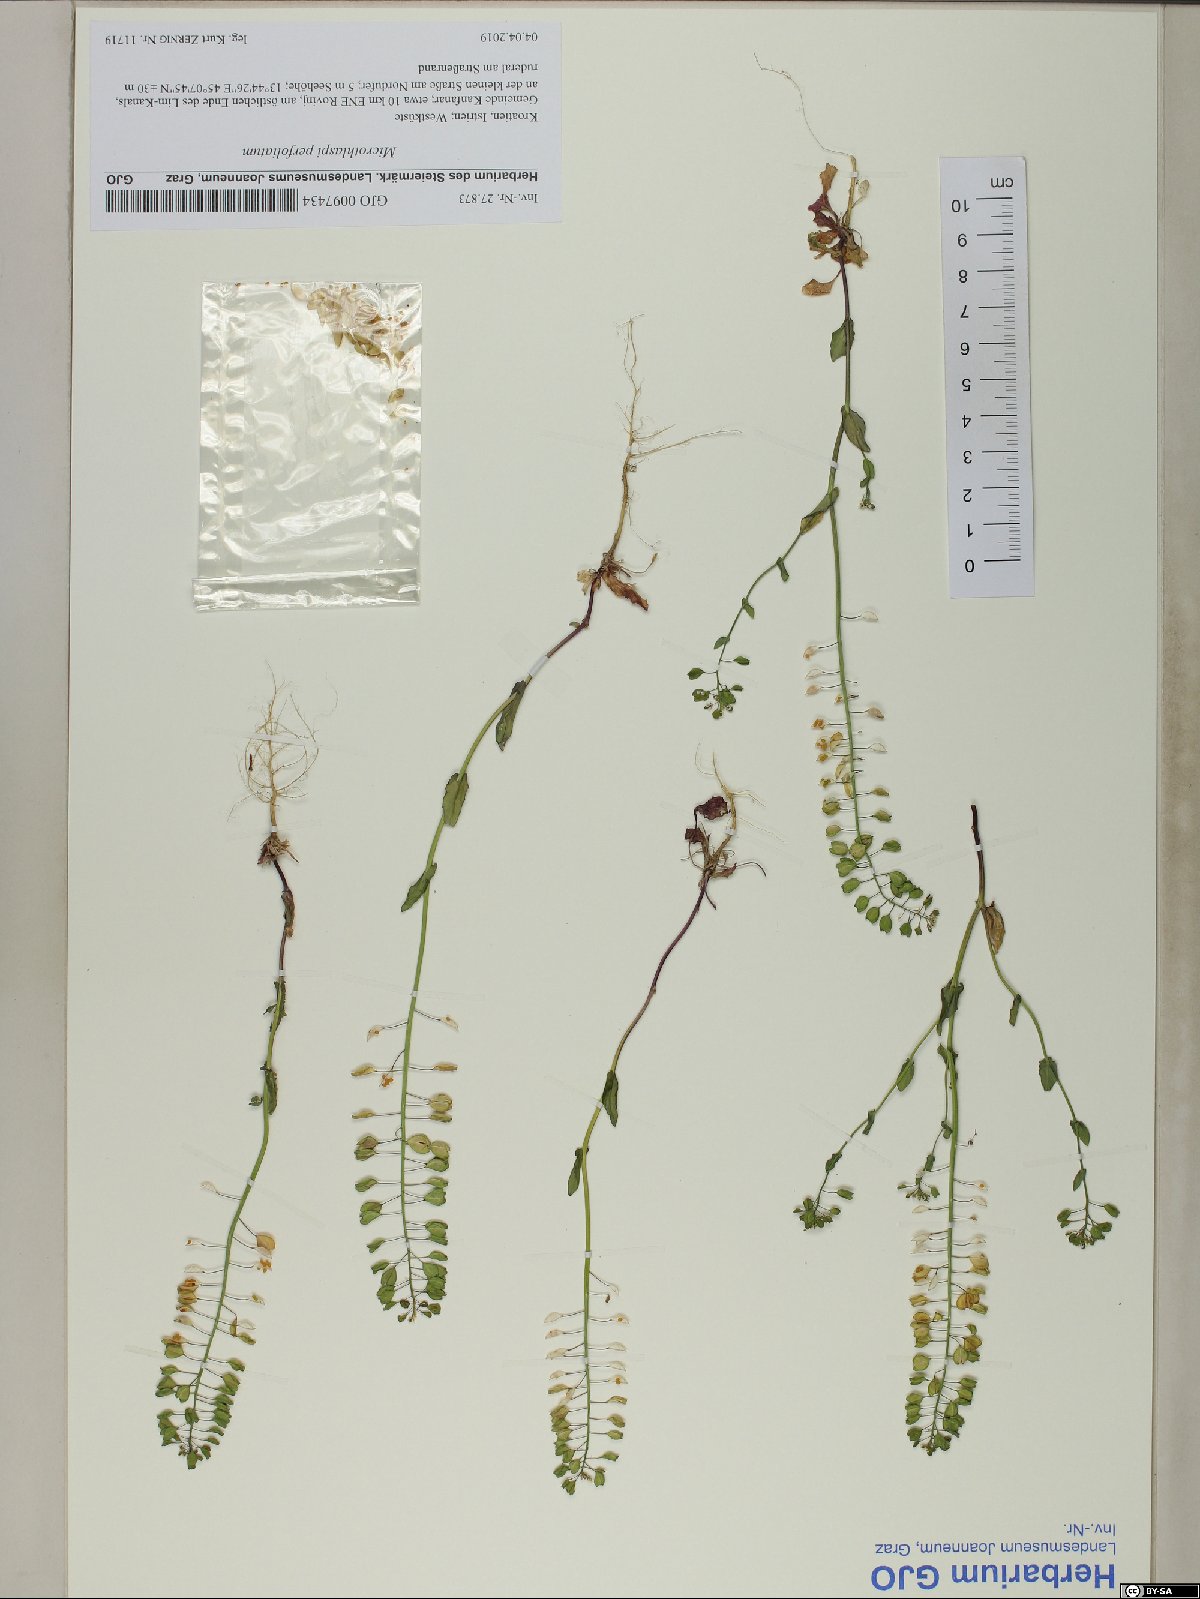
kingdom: Plantae
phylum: Tracheophyta
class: Magnoliopsida
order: Brassicales
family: Brassicaceae
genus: Noccaea
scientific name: Noccaea perfoliata
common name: Perfoliate pennycress
